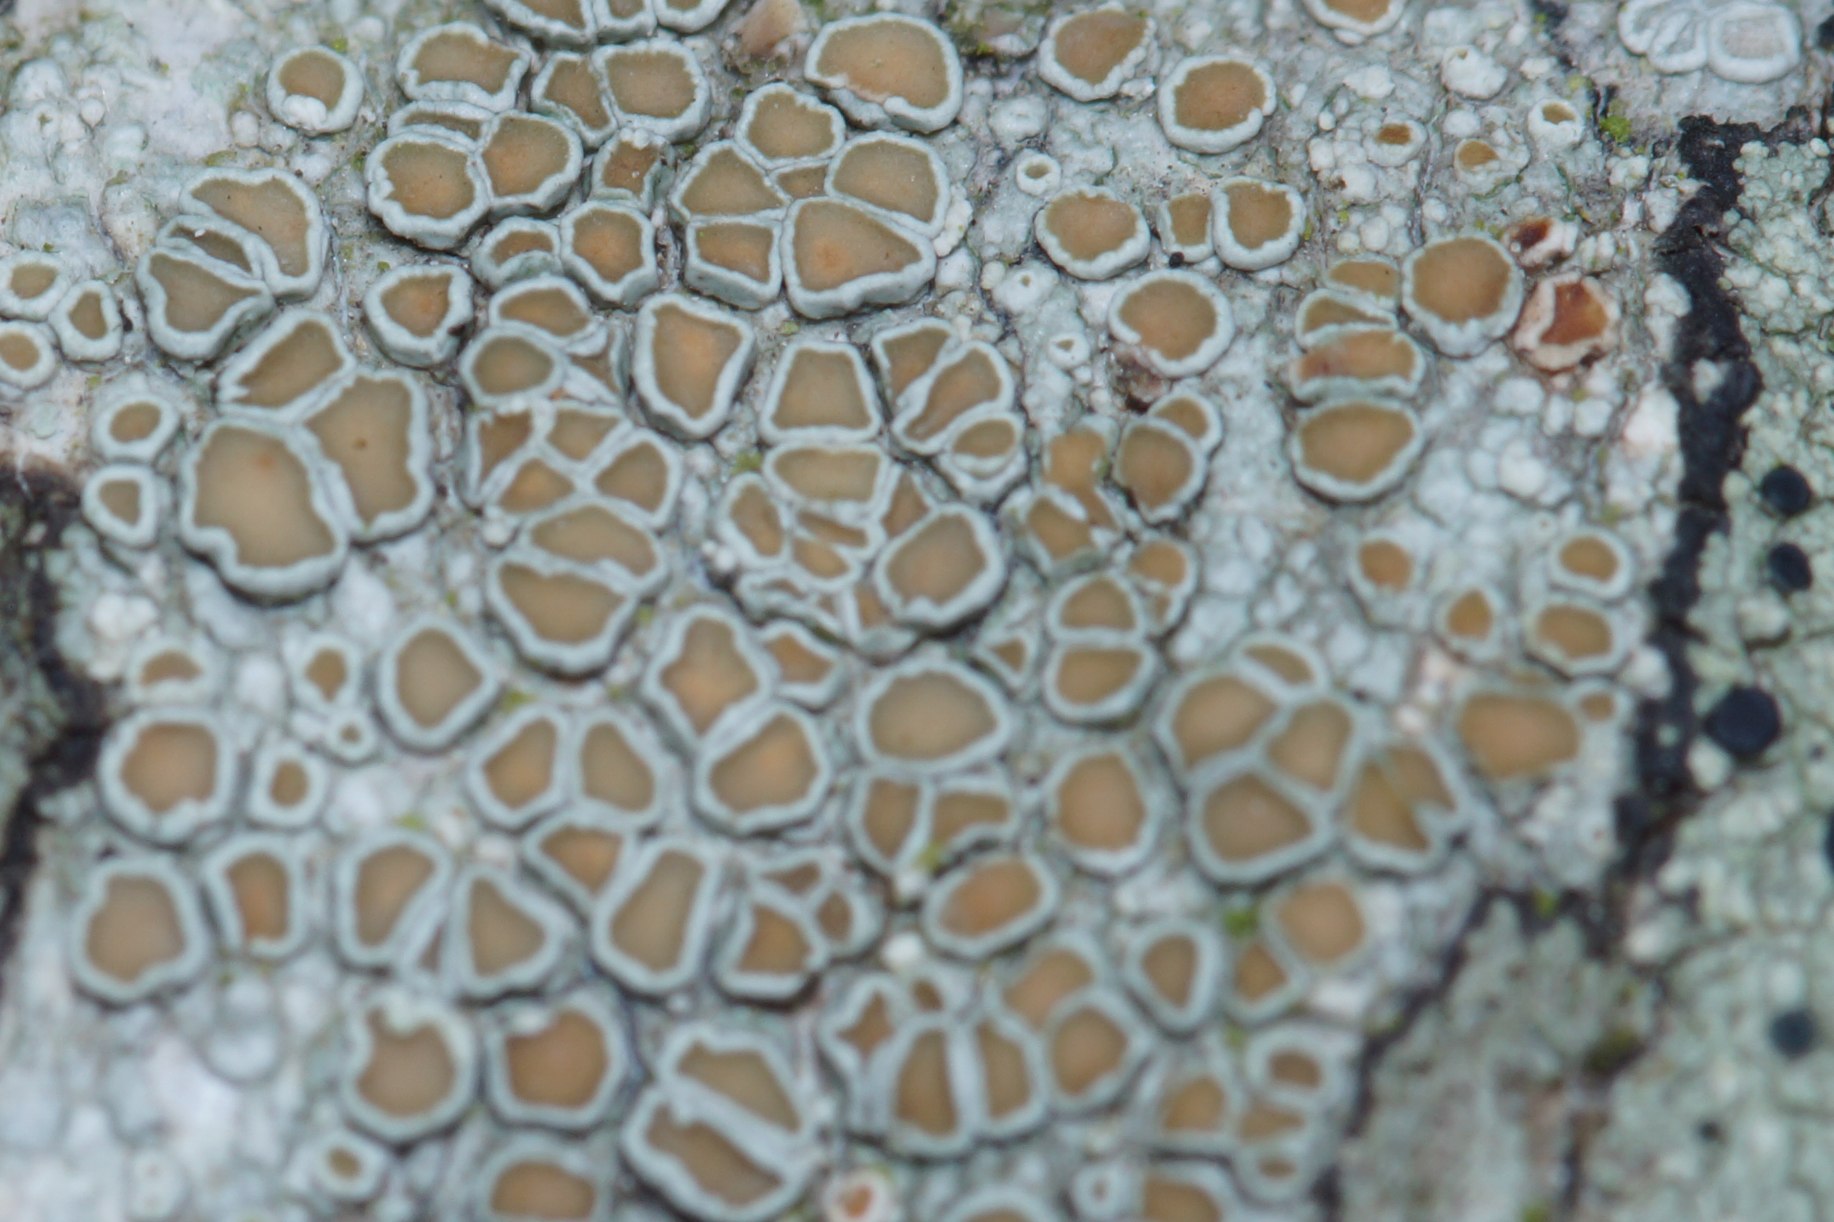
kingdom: Fungi
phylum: Ascomycota
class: Lecanoromycetes
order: Lecanorales
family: Lecanoraceae
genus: Lecanora
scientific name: Lecanora chlarotera
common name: Brun kantskivelav
